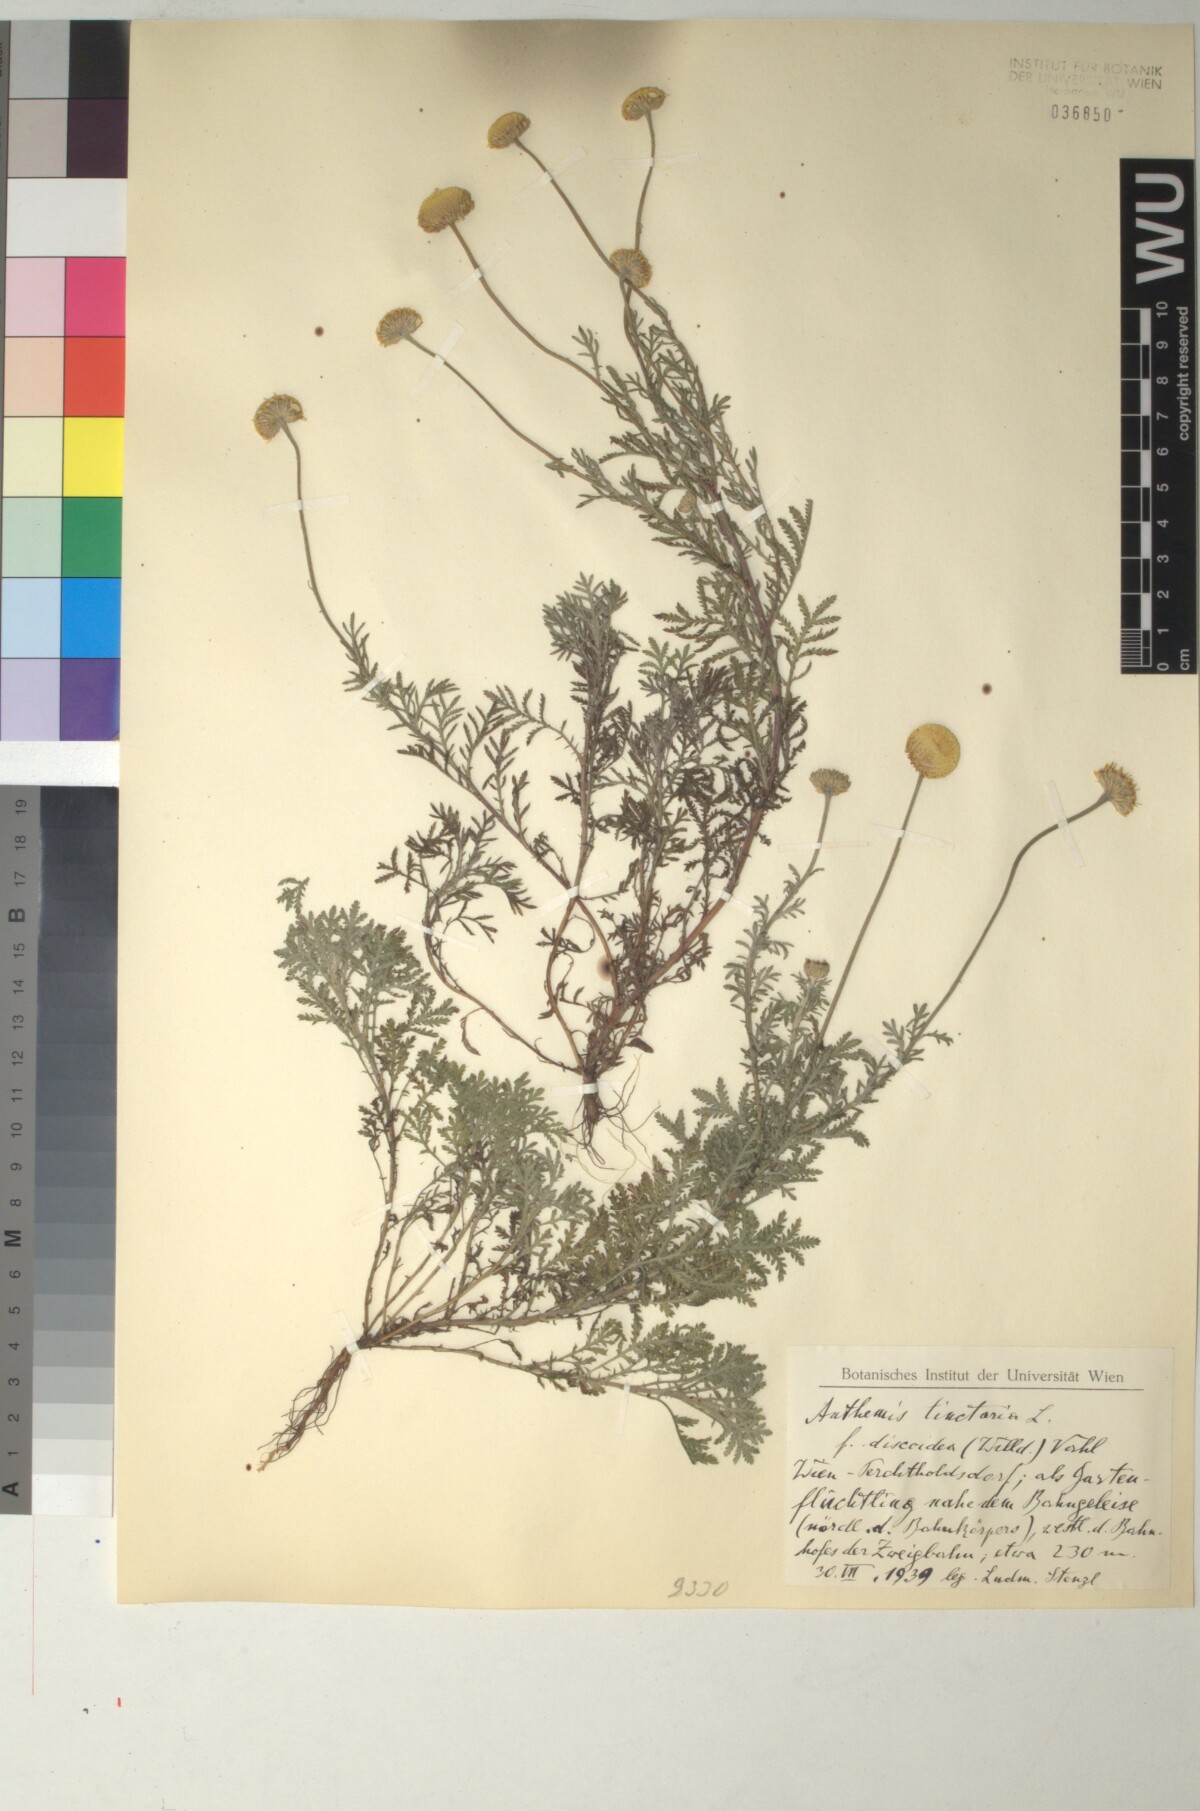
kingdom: Plantae
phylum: Tracheophyta
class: Magnoliopsida
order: Asterales
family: Asteraceae
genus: Cota
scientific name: Cota tinctoria
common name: Golden chamomile
